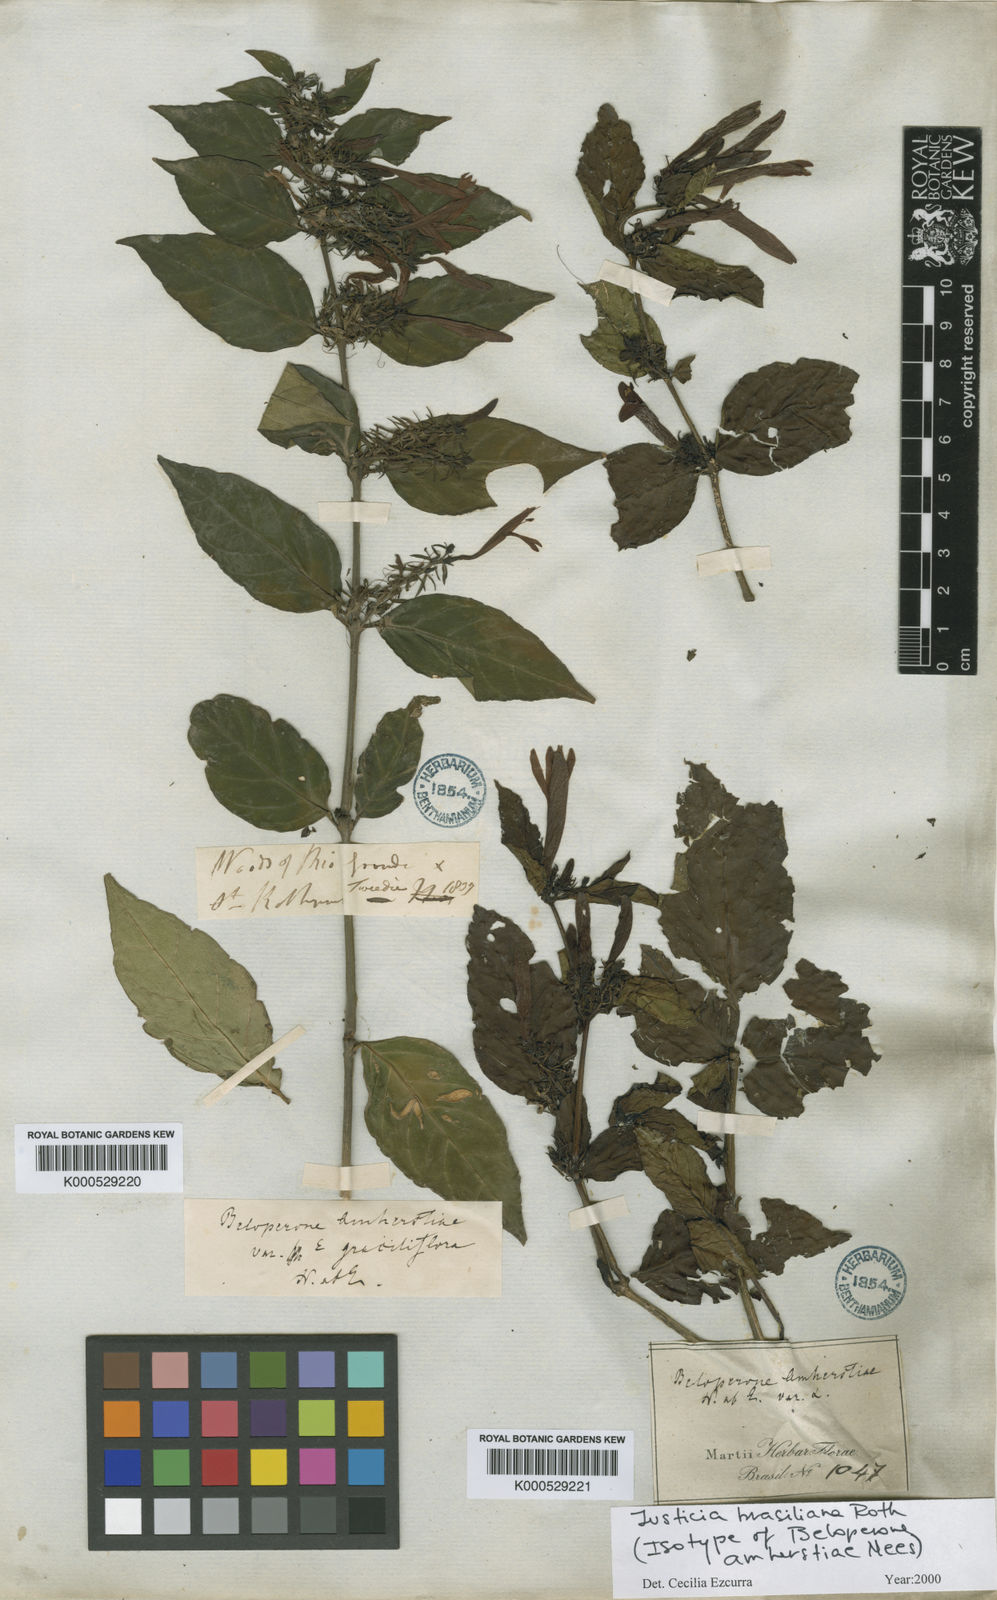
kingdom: Plantae
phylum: Tracheophyta
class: Magnoliopsida
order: Lamiales
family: Acanthaceae
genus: Justicia
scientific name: Justicia brasiliana
